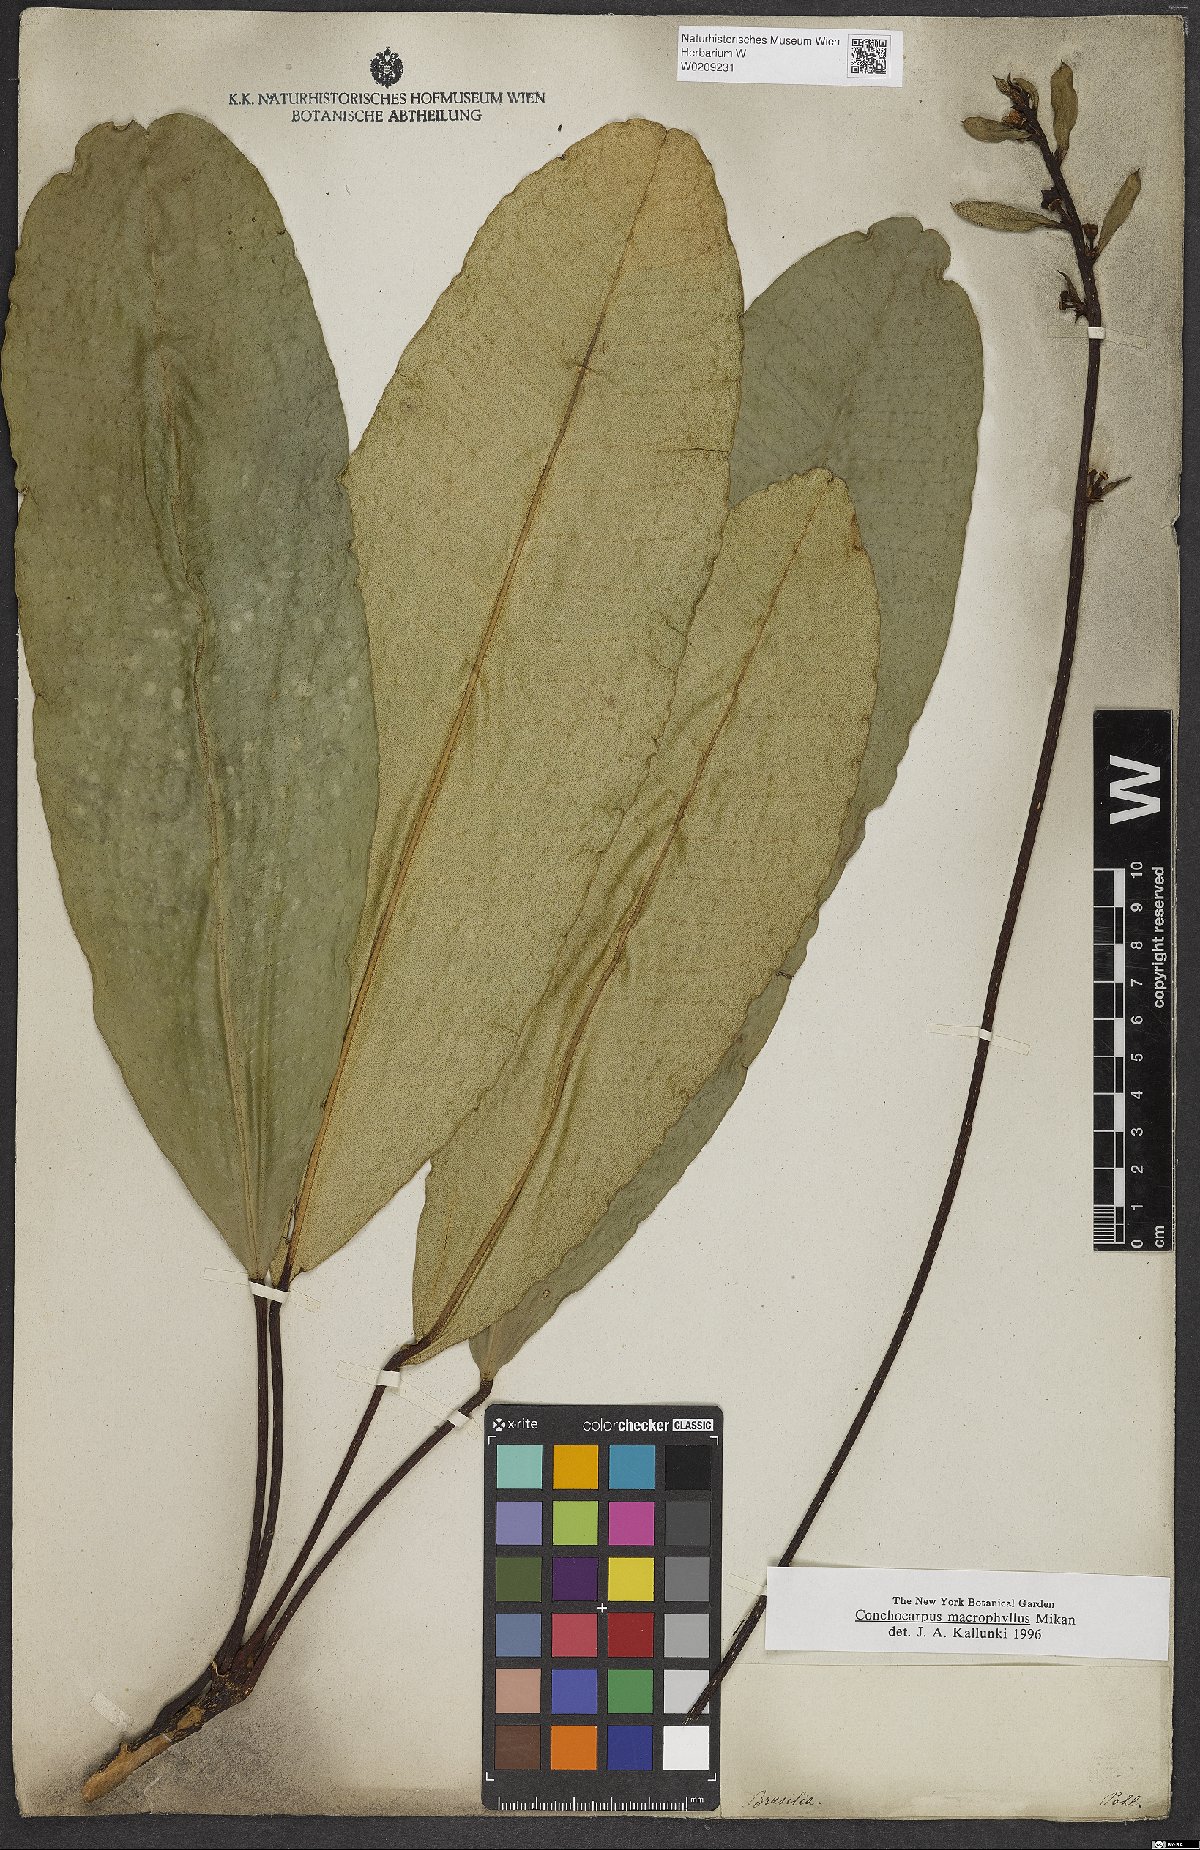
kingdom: Plantae
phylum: Tracheophyta
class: Magnoliopsida
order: Sapindales
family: Rutaceae
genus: Conchocarpus
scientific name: Conchocarpus macrophyllus
